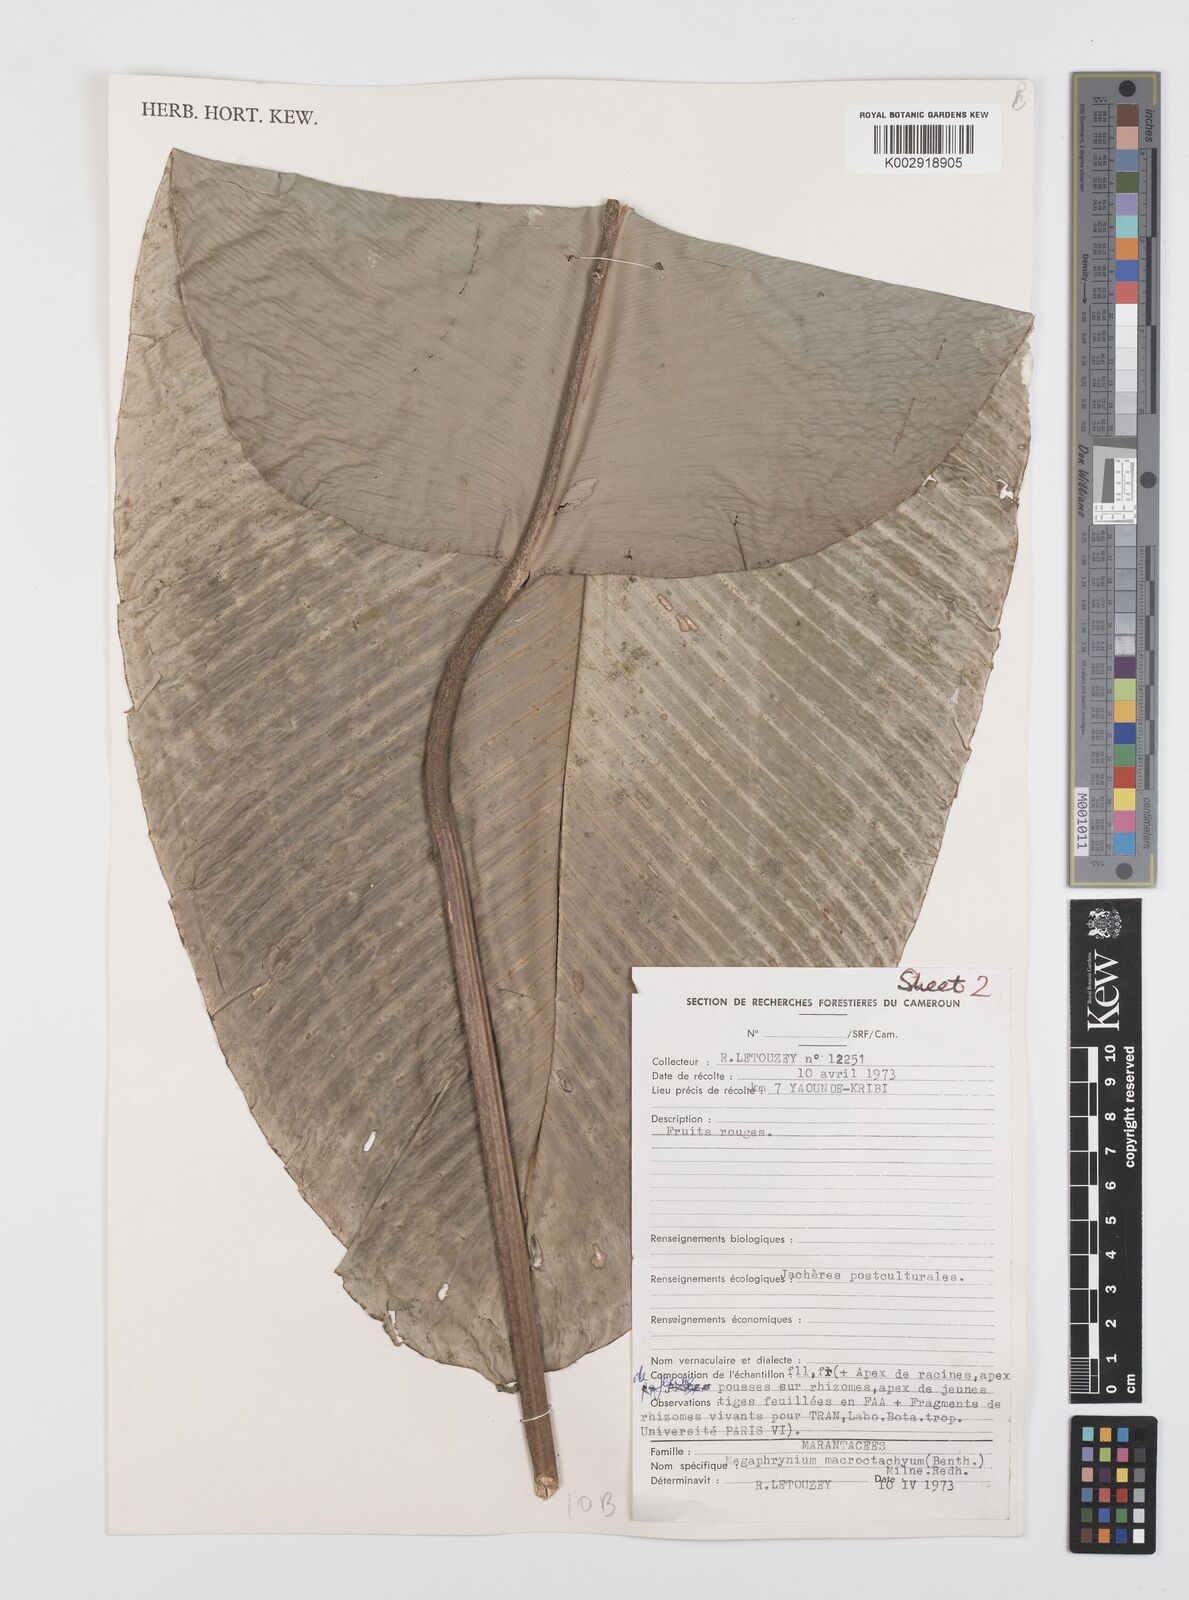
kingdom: Plantae
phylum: Tracheophyta
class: Liliopsida
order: Zingiberales
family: Marantaceae
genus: Megaphrynium
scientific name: Megaphrynium macrostachyum
